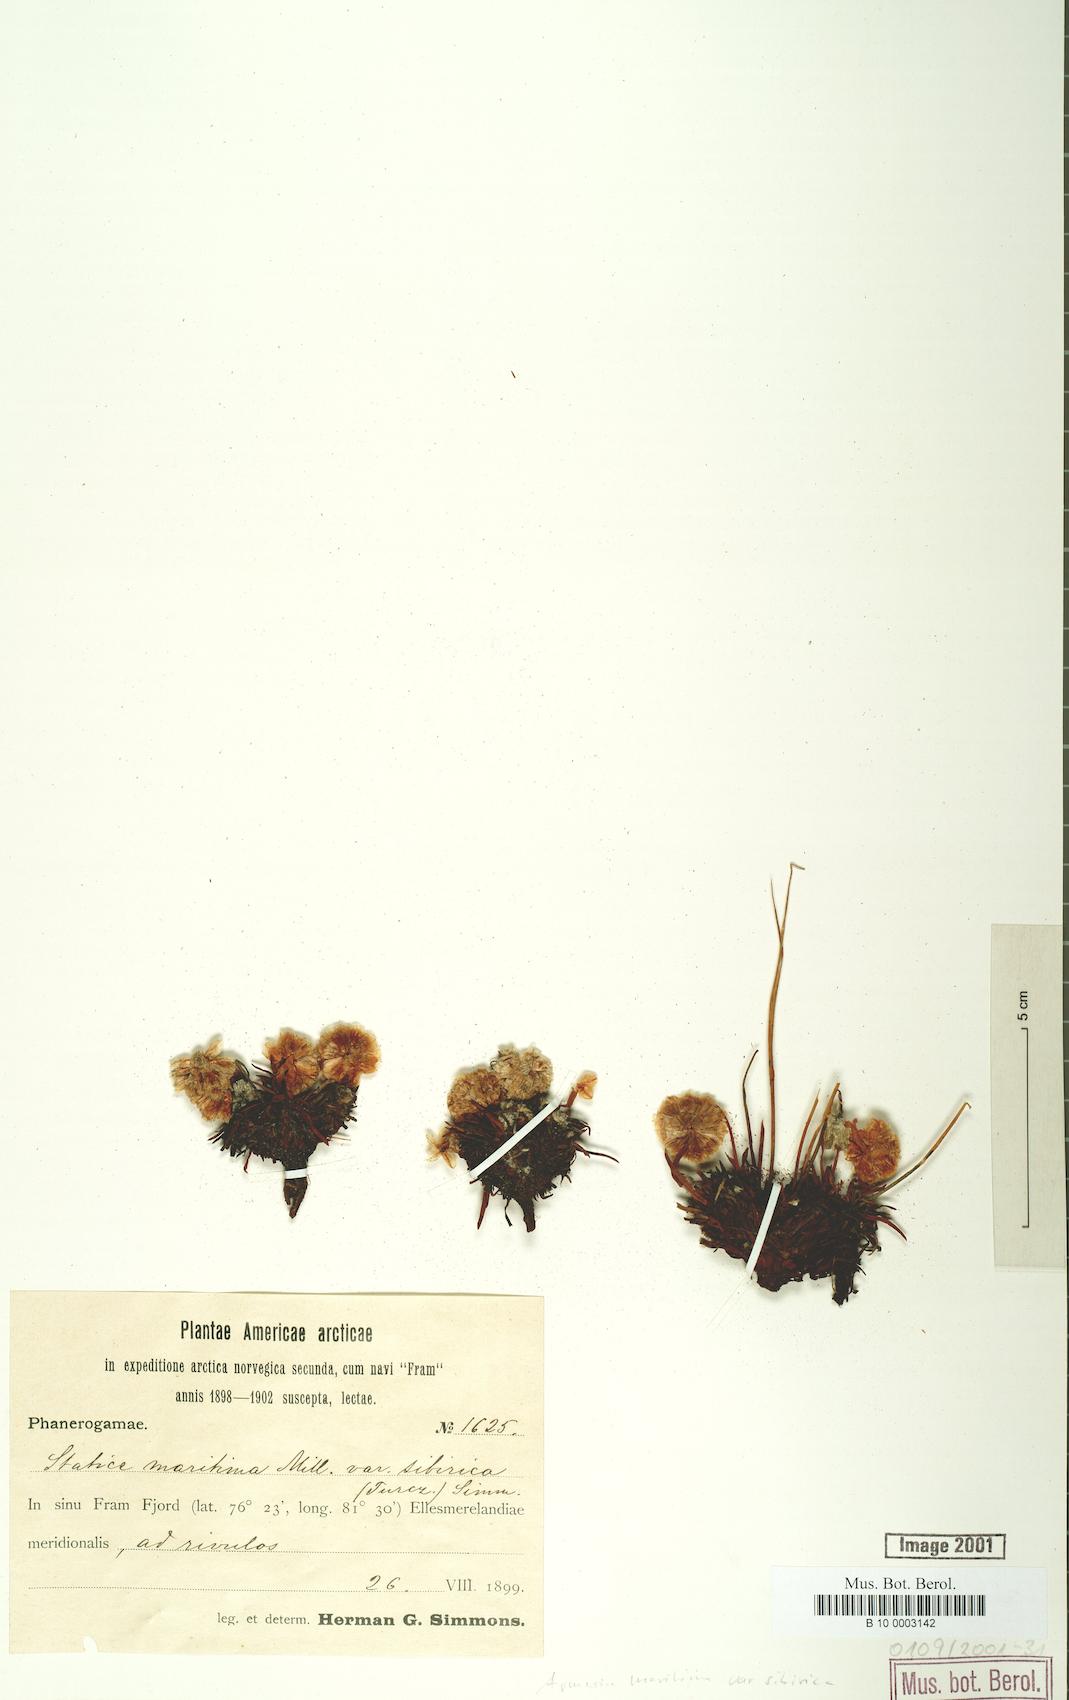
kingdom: Plantae
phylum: Tracheophyta
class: Magnoliopsida
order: Caryophyllales
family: Plumbaginaceae
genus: Armeria
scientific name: Armeria maritima
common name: Thrift
